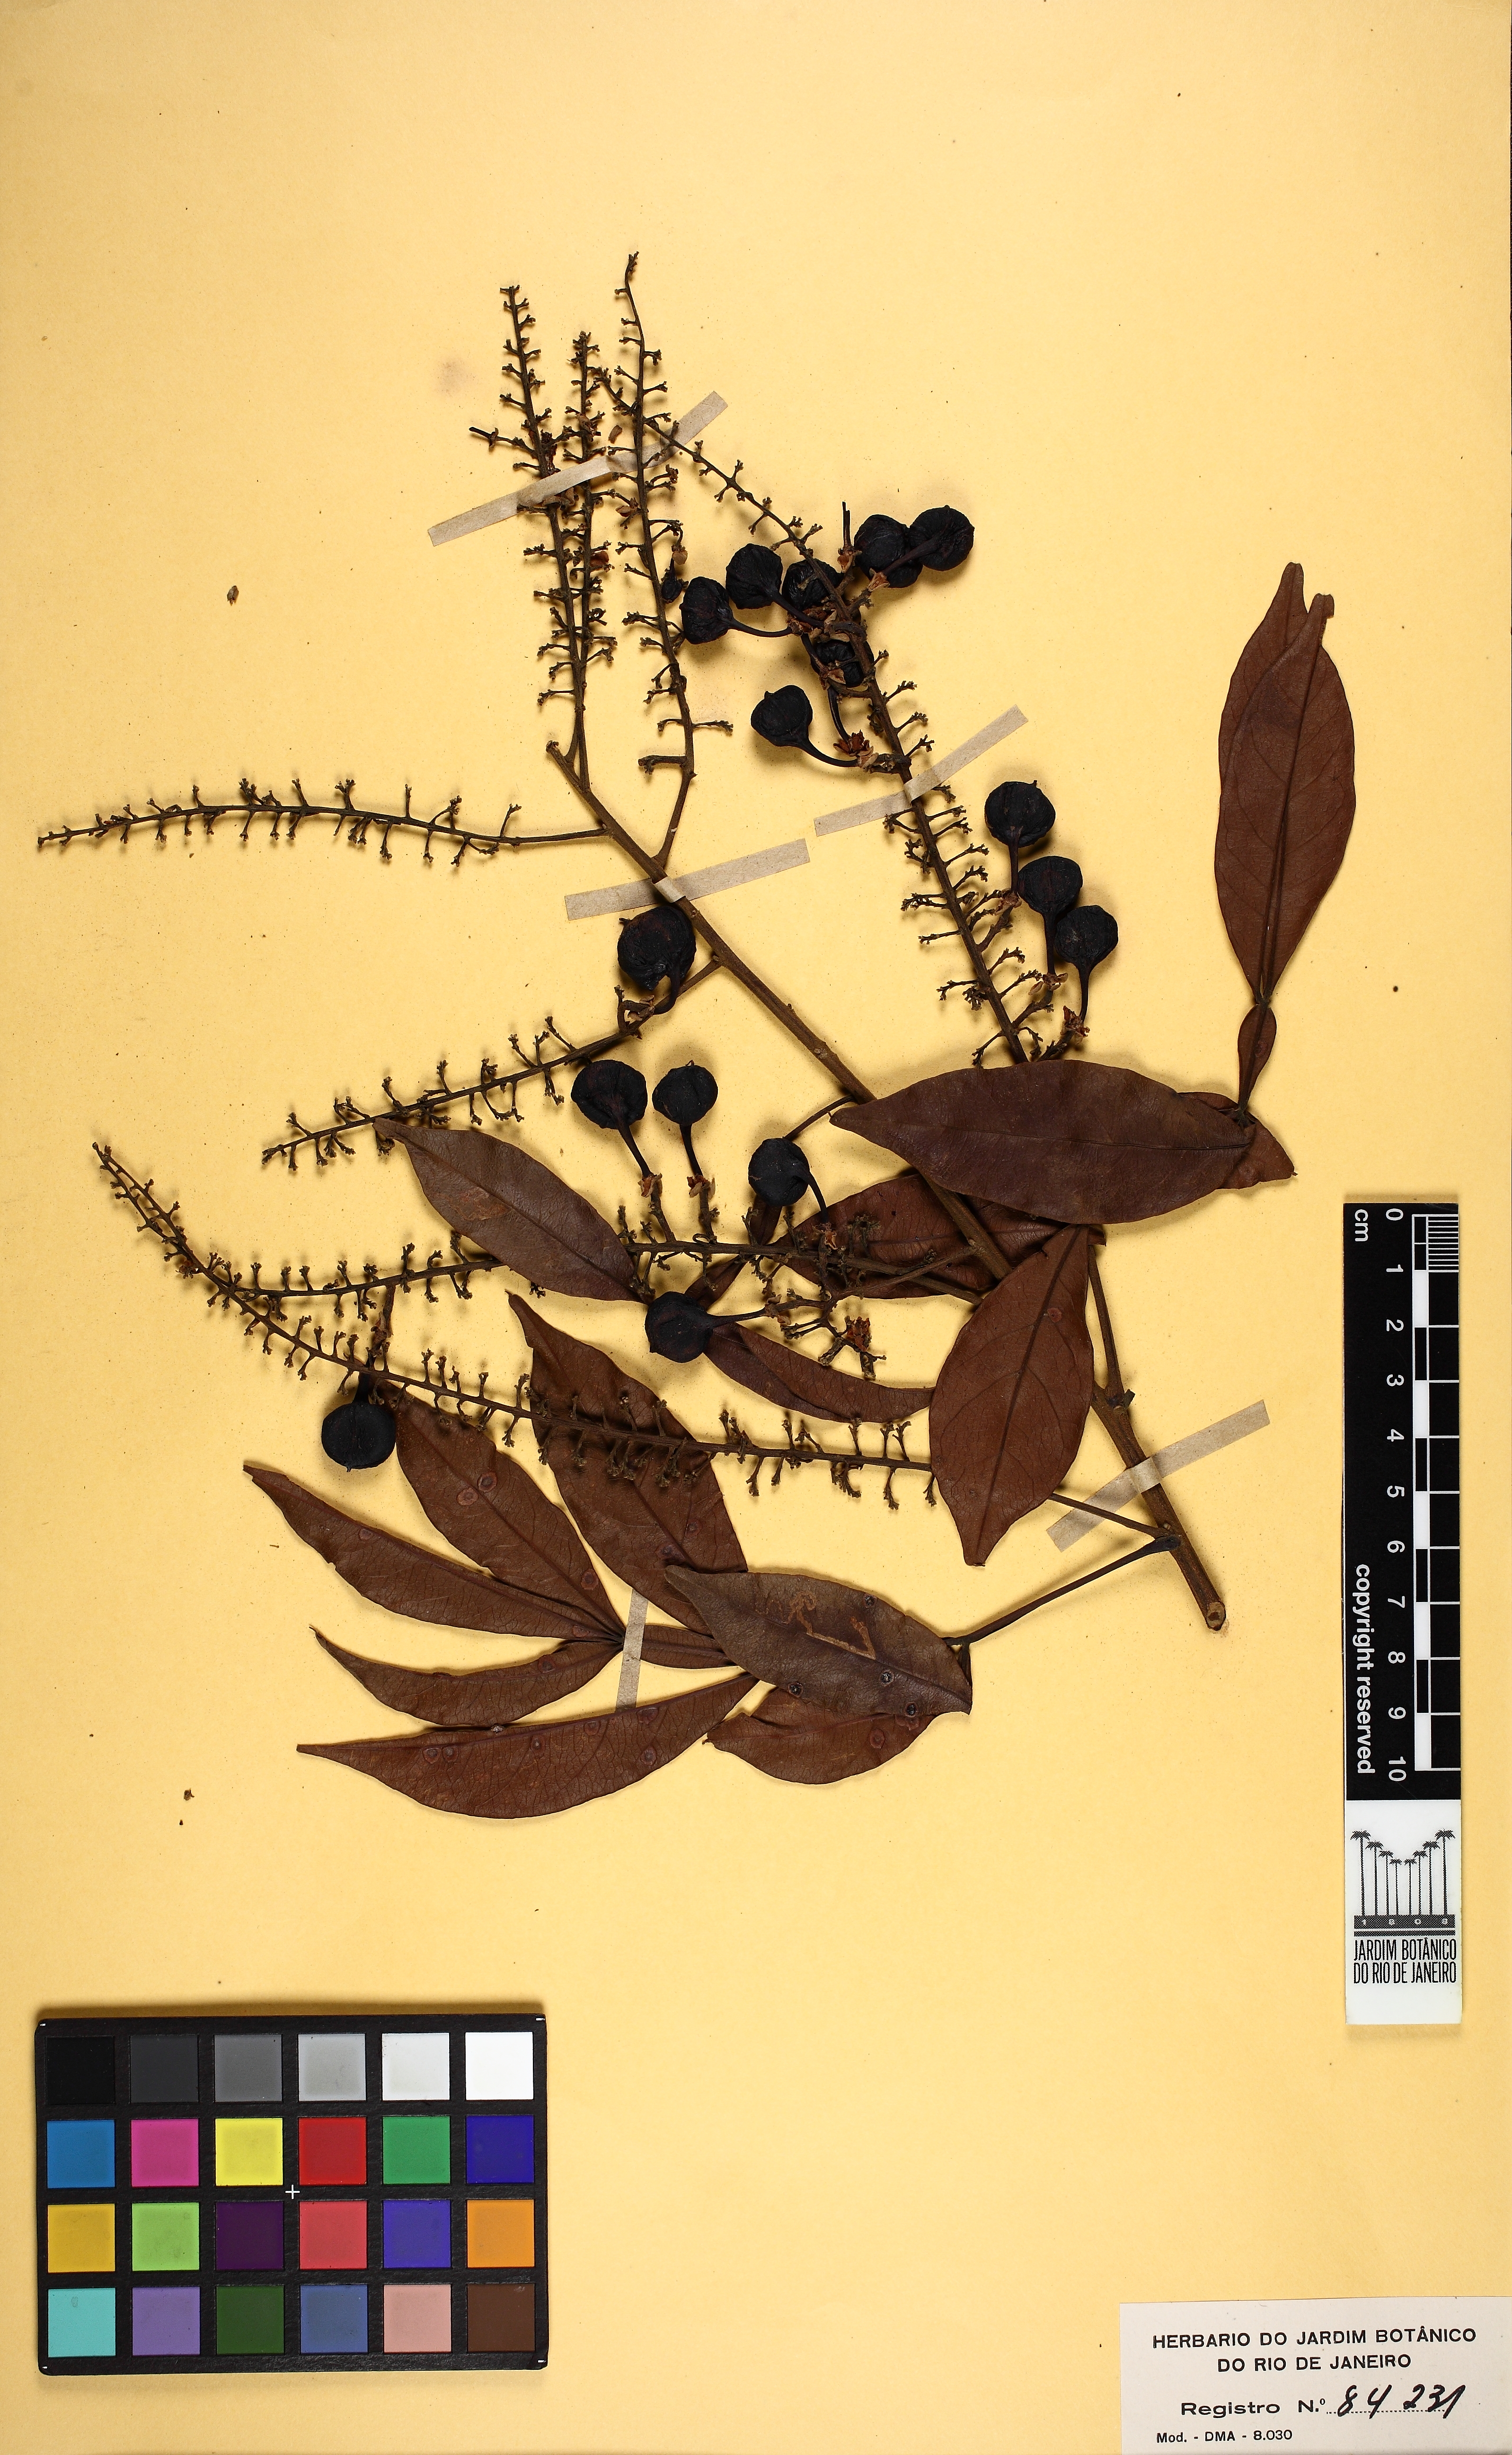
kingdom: Plantae
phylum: Tracheophyta
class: Magnoliopsida
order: Sapindales
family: Sapindaceae
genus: Paullinia
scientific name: Paullinia marginata
